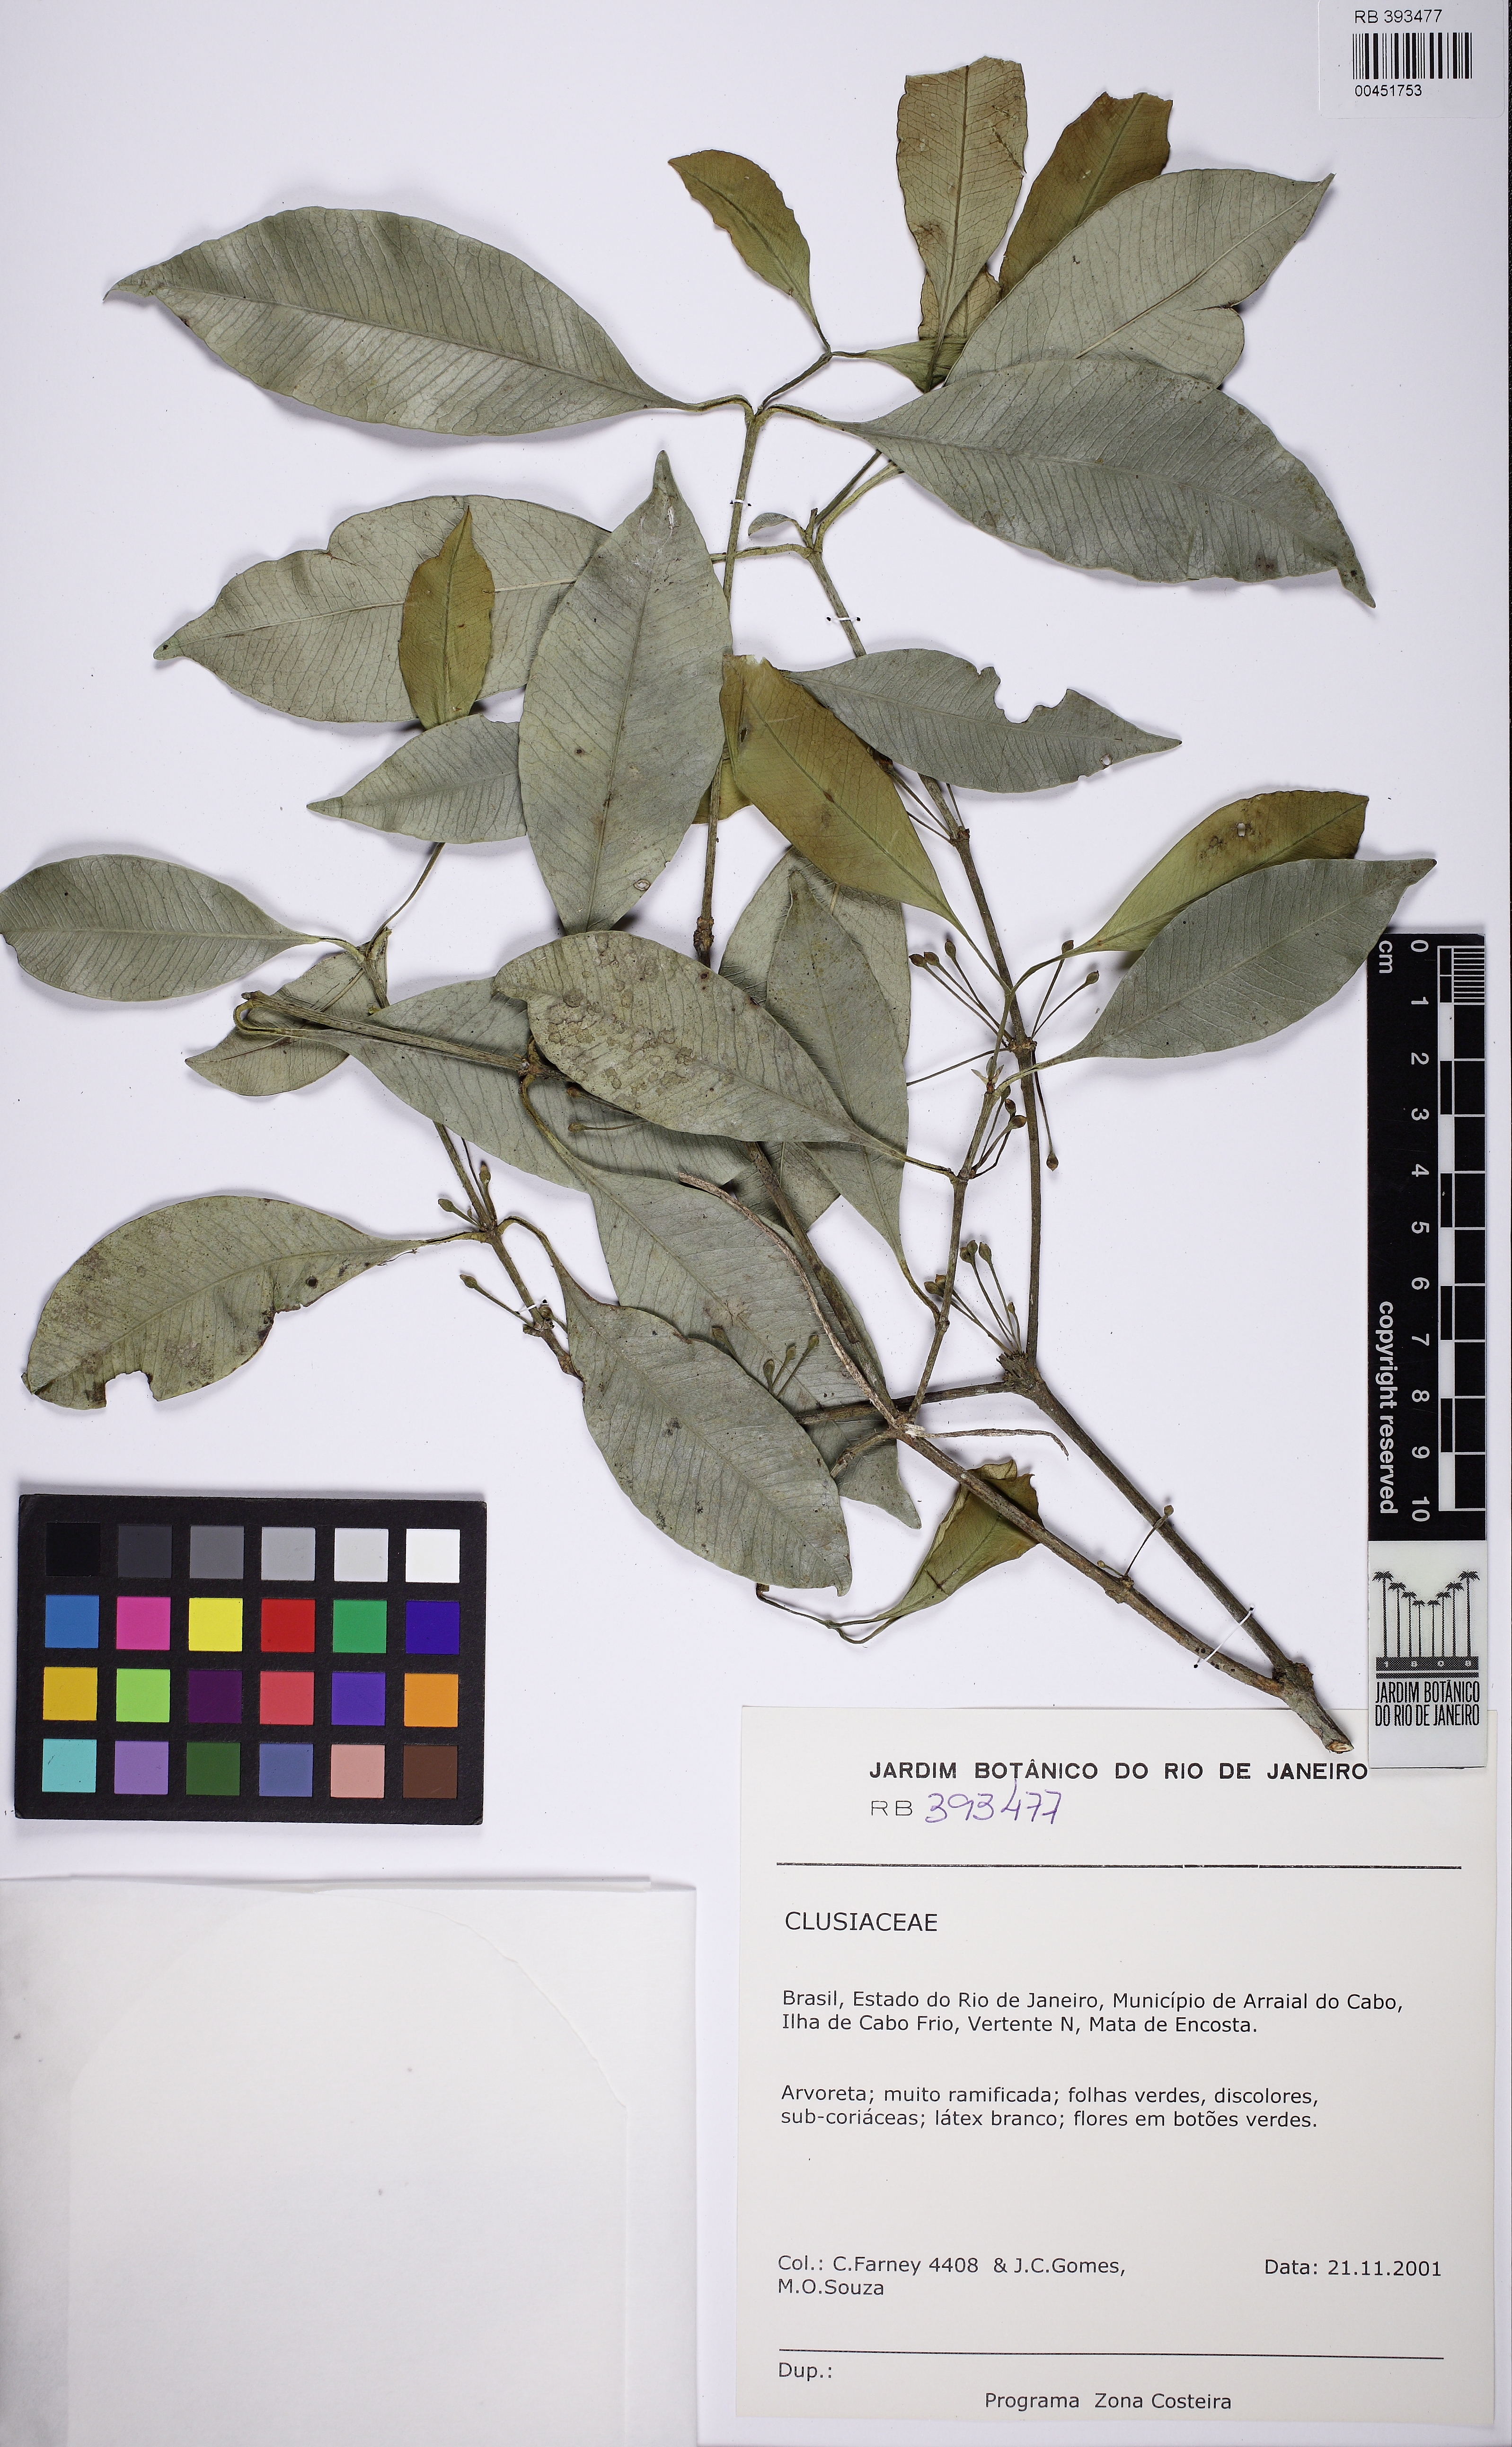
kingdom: Plantae
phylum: Tracheophyta
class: Magnoliopsida
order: Malpighiales
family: Clusiaceae
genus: Garcinia
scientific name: Garcinia gardneriana
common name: Achacha
